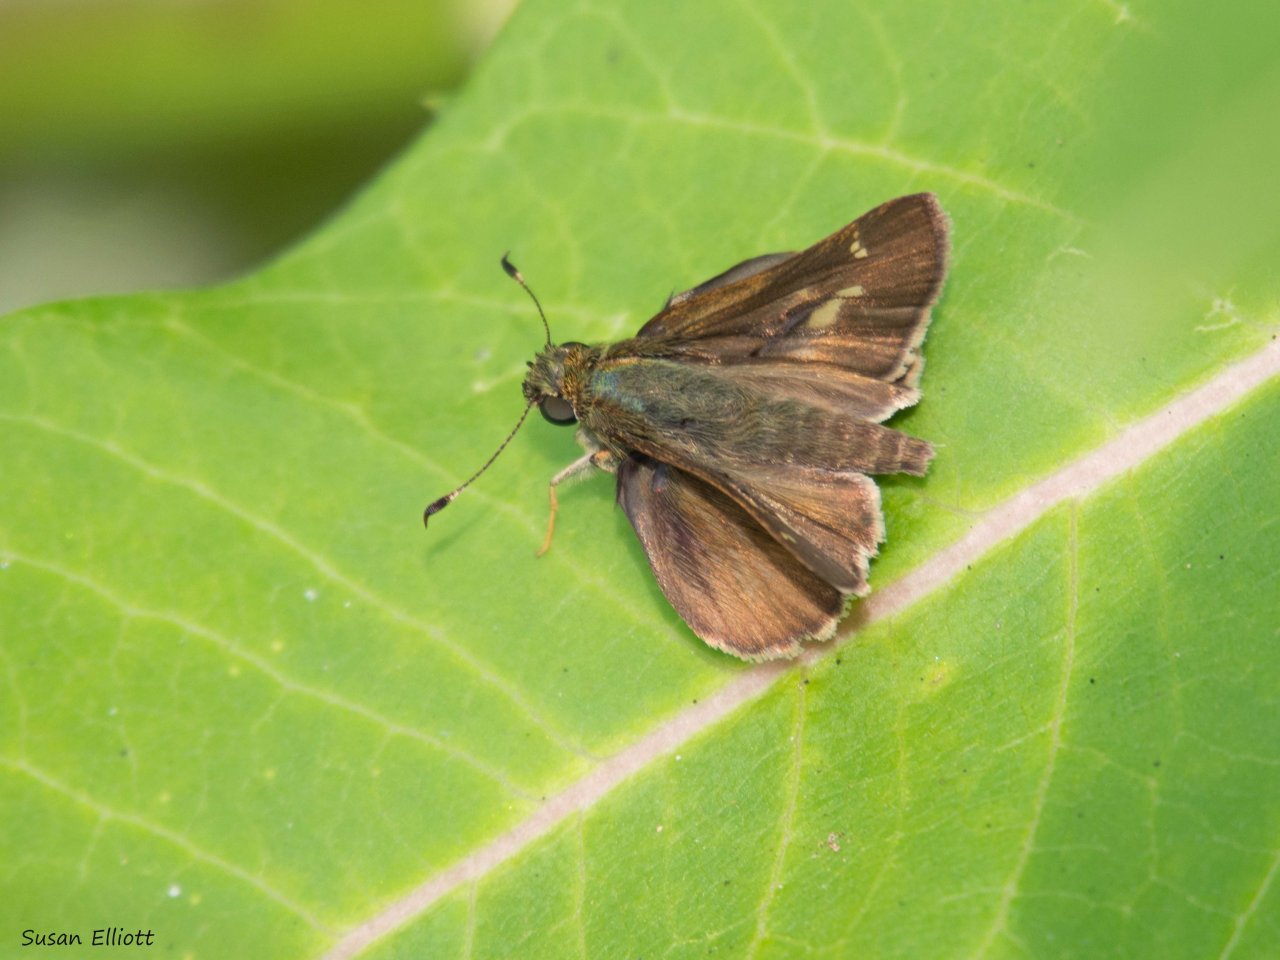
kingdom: Animalia
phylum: Arthropoda
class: Insecta
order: Lepidoptera
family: Hesperiidae
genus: Vernia
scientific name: Vernia verna
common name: Little Glassywing
